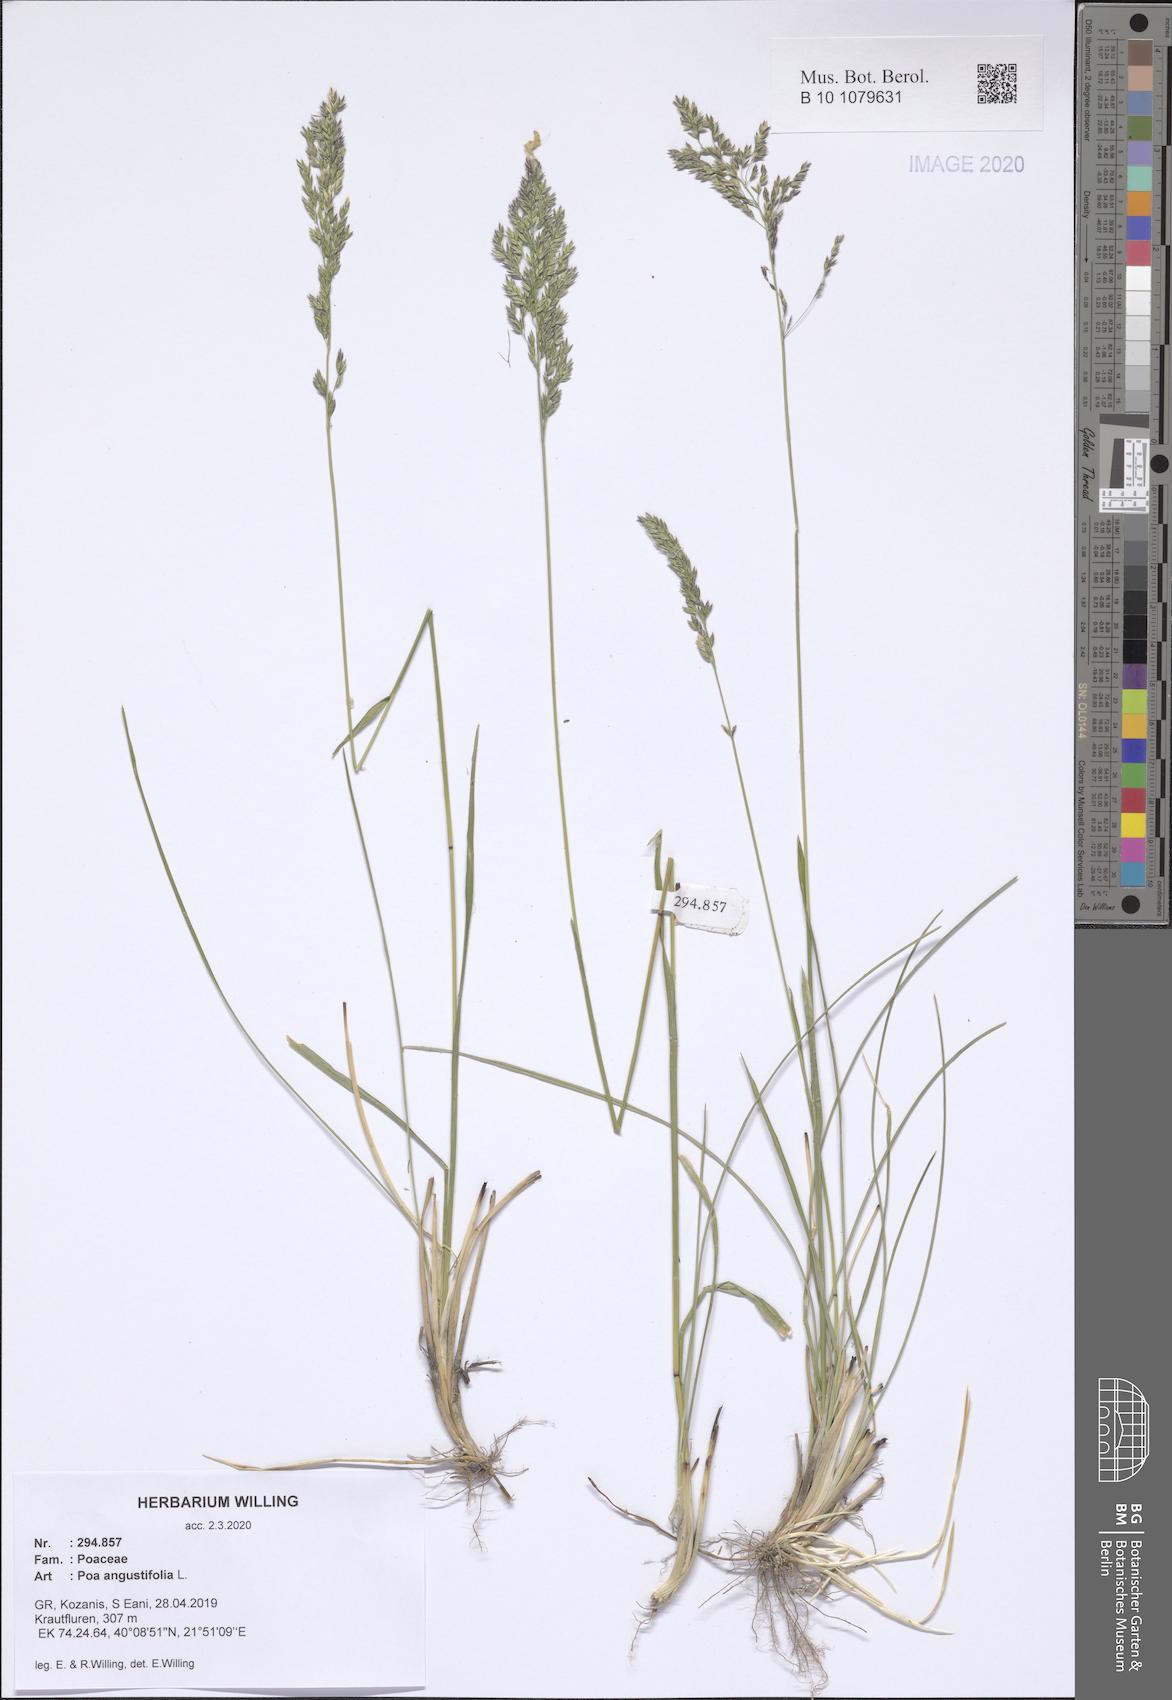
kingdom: Plantae
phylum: Tracheophyta
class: Liliopsida
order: Poales
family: Poaceae
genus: Poa
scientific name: Poa angustifolia
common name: Narrow-leaved meadow-grass
